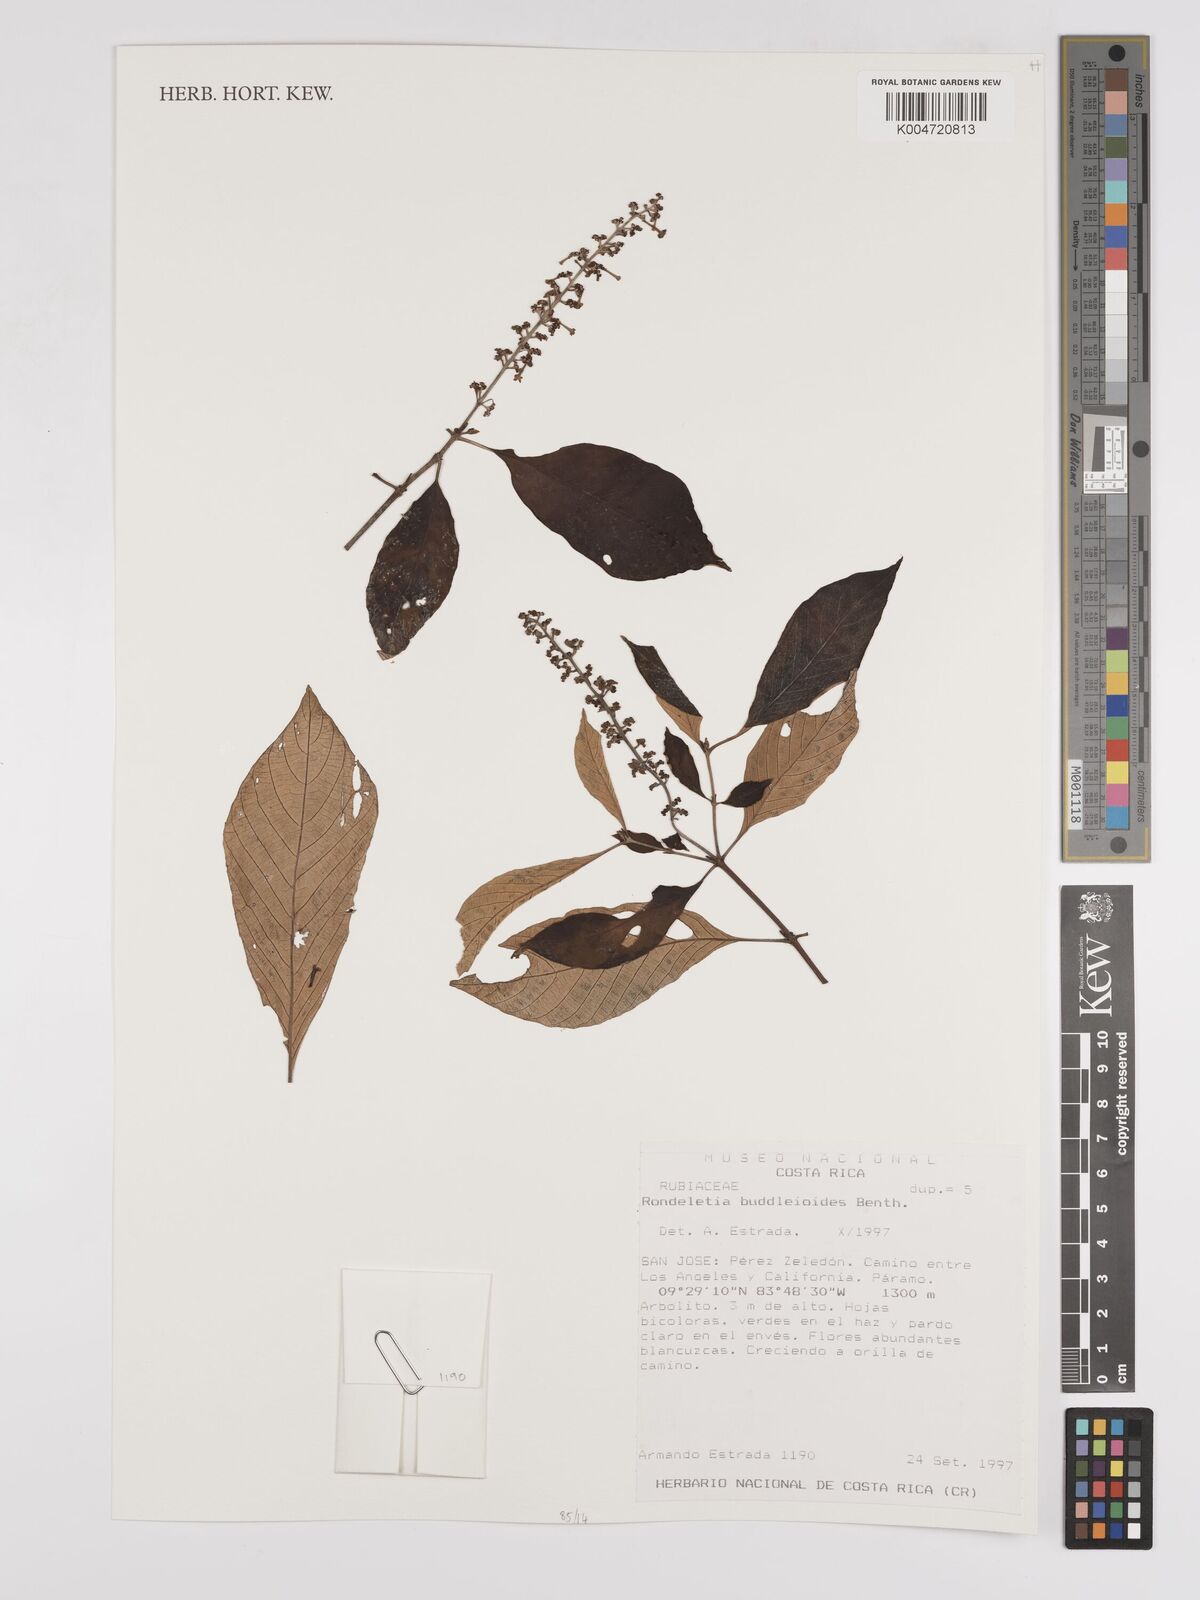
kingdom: Plantae
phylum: Tracheophyta
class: Magnoliopsida
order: Gentianales
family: Rubiaceae
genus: Arachnothryx
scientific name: Arachnothryx buddleioides
